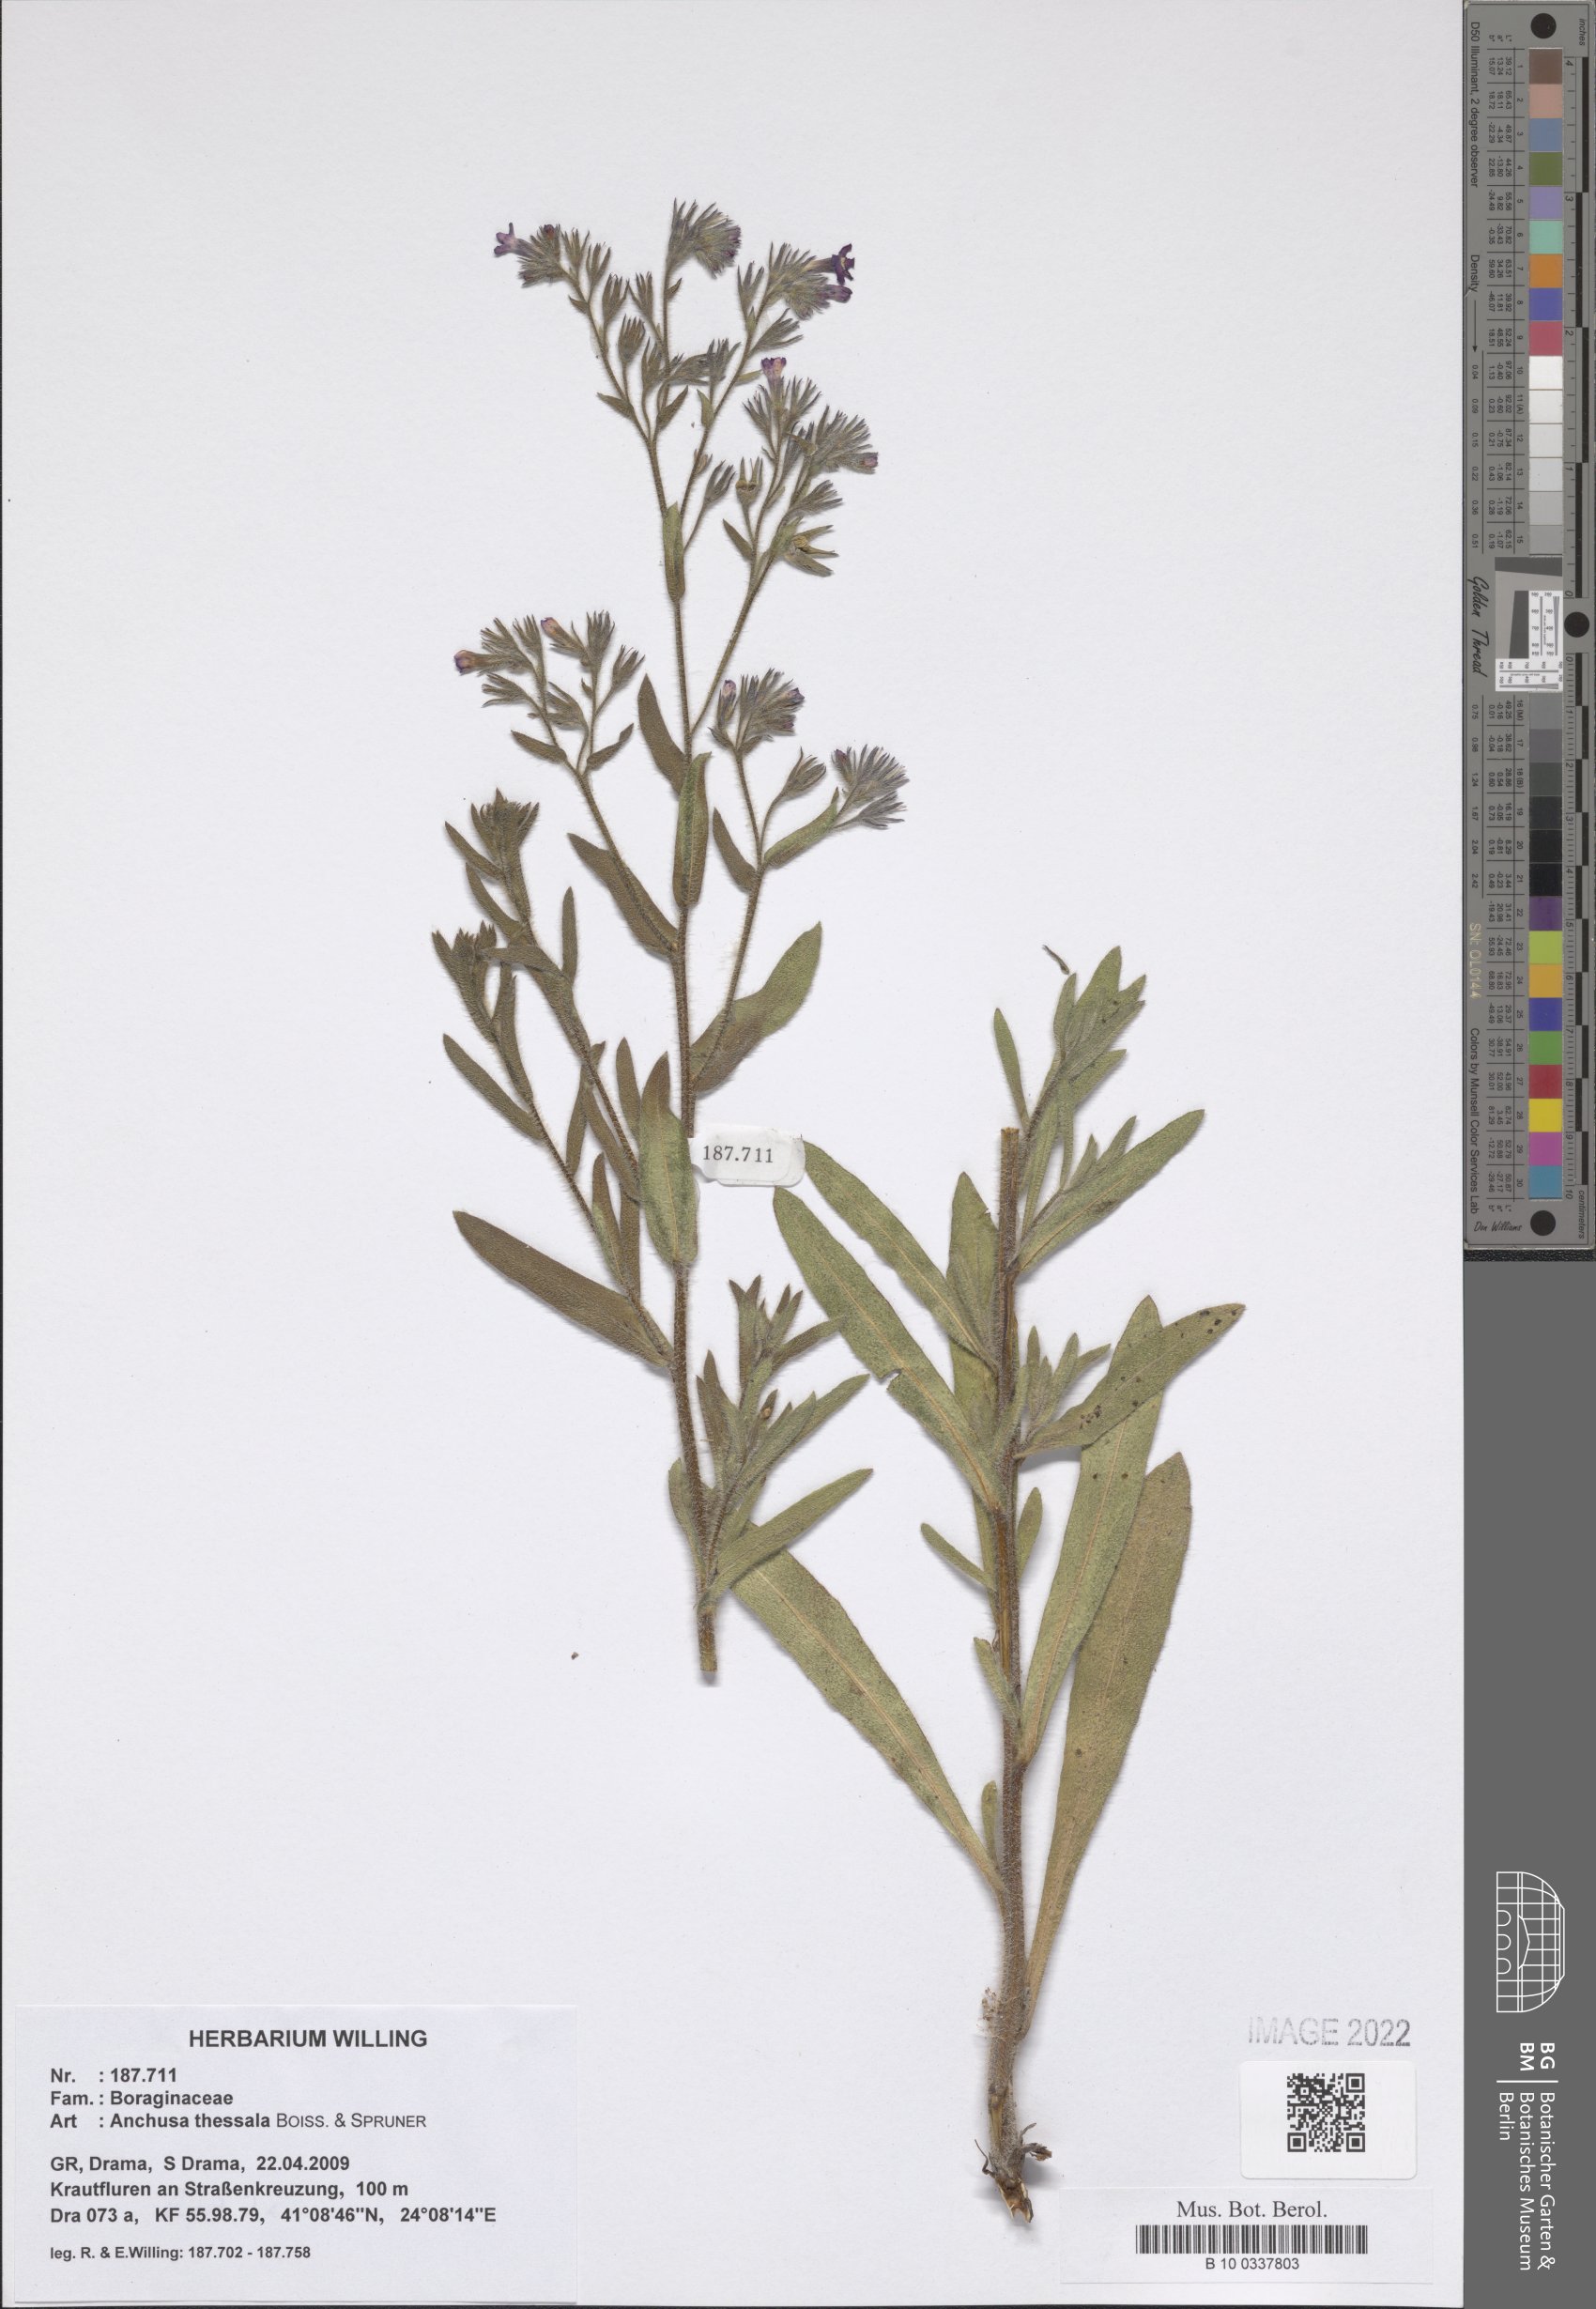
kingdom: Plantae
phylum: Tracheophyta
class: Magnoliopsida
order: Boraginales
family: Boraginaceae
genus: Anchusa
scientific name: Anchusa thessala
